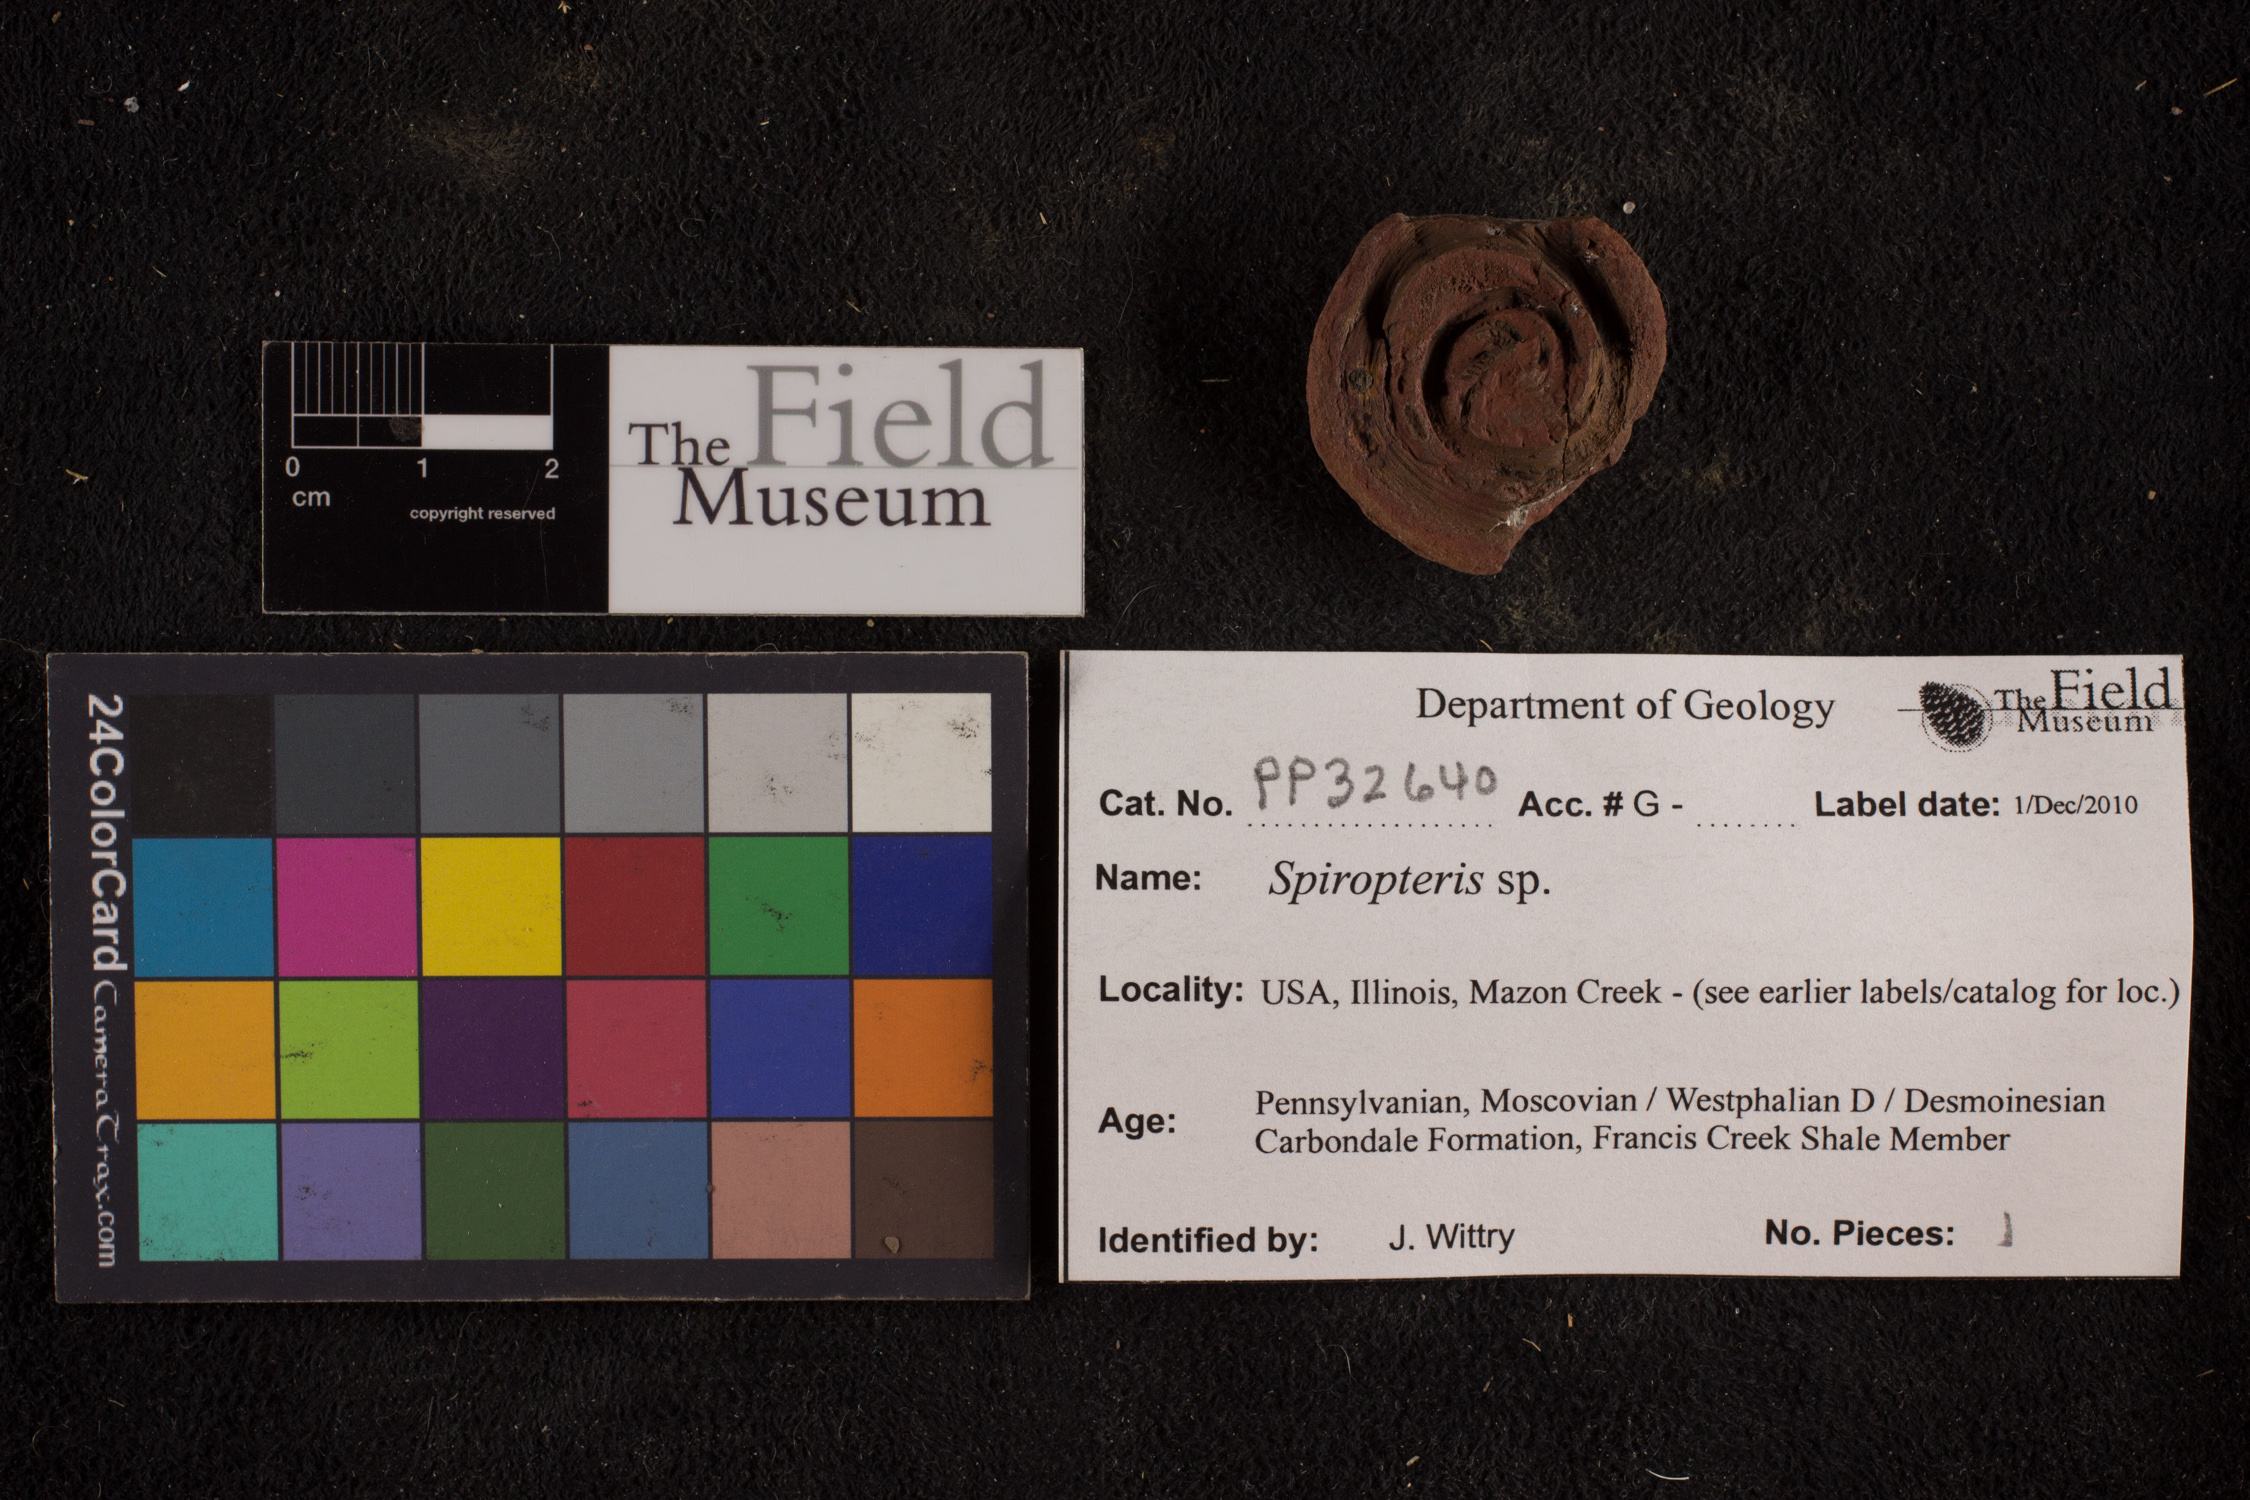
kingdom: Plantae
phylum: Tracheophyta
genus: Spiropteris
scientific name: Spiropteris
